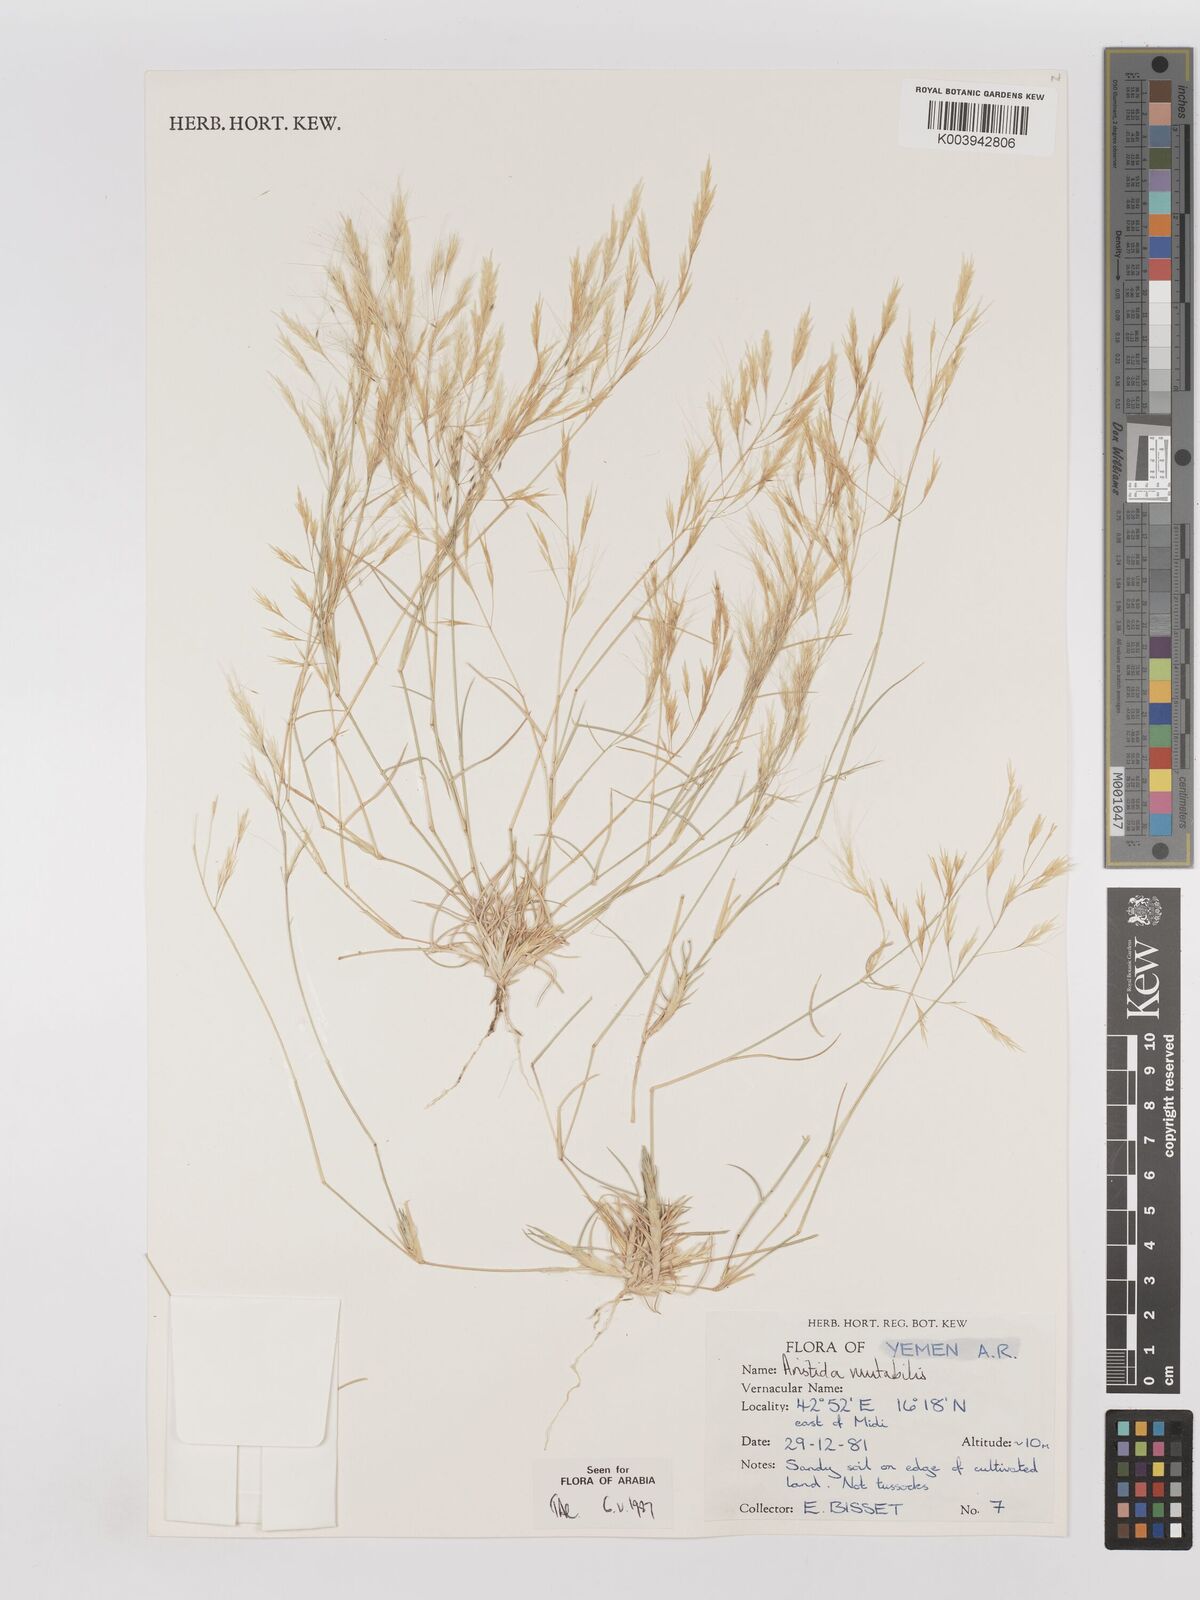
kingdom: Plantae
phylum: Tracheophyta
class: Liliopsida
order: Poales
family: Poaceae
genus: Aristida
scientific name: Aristida mutabilis
